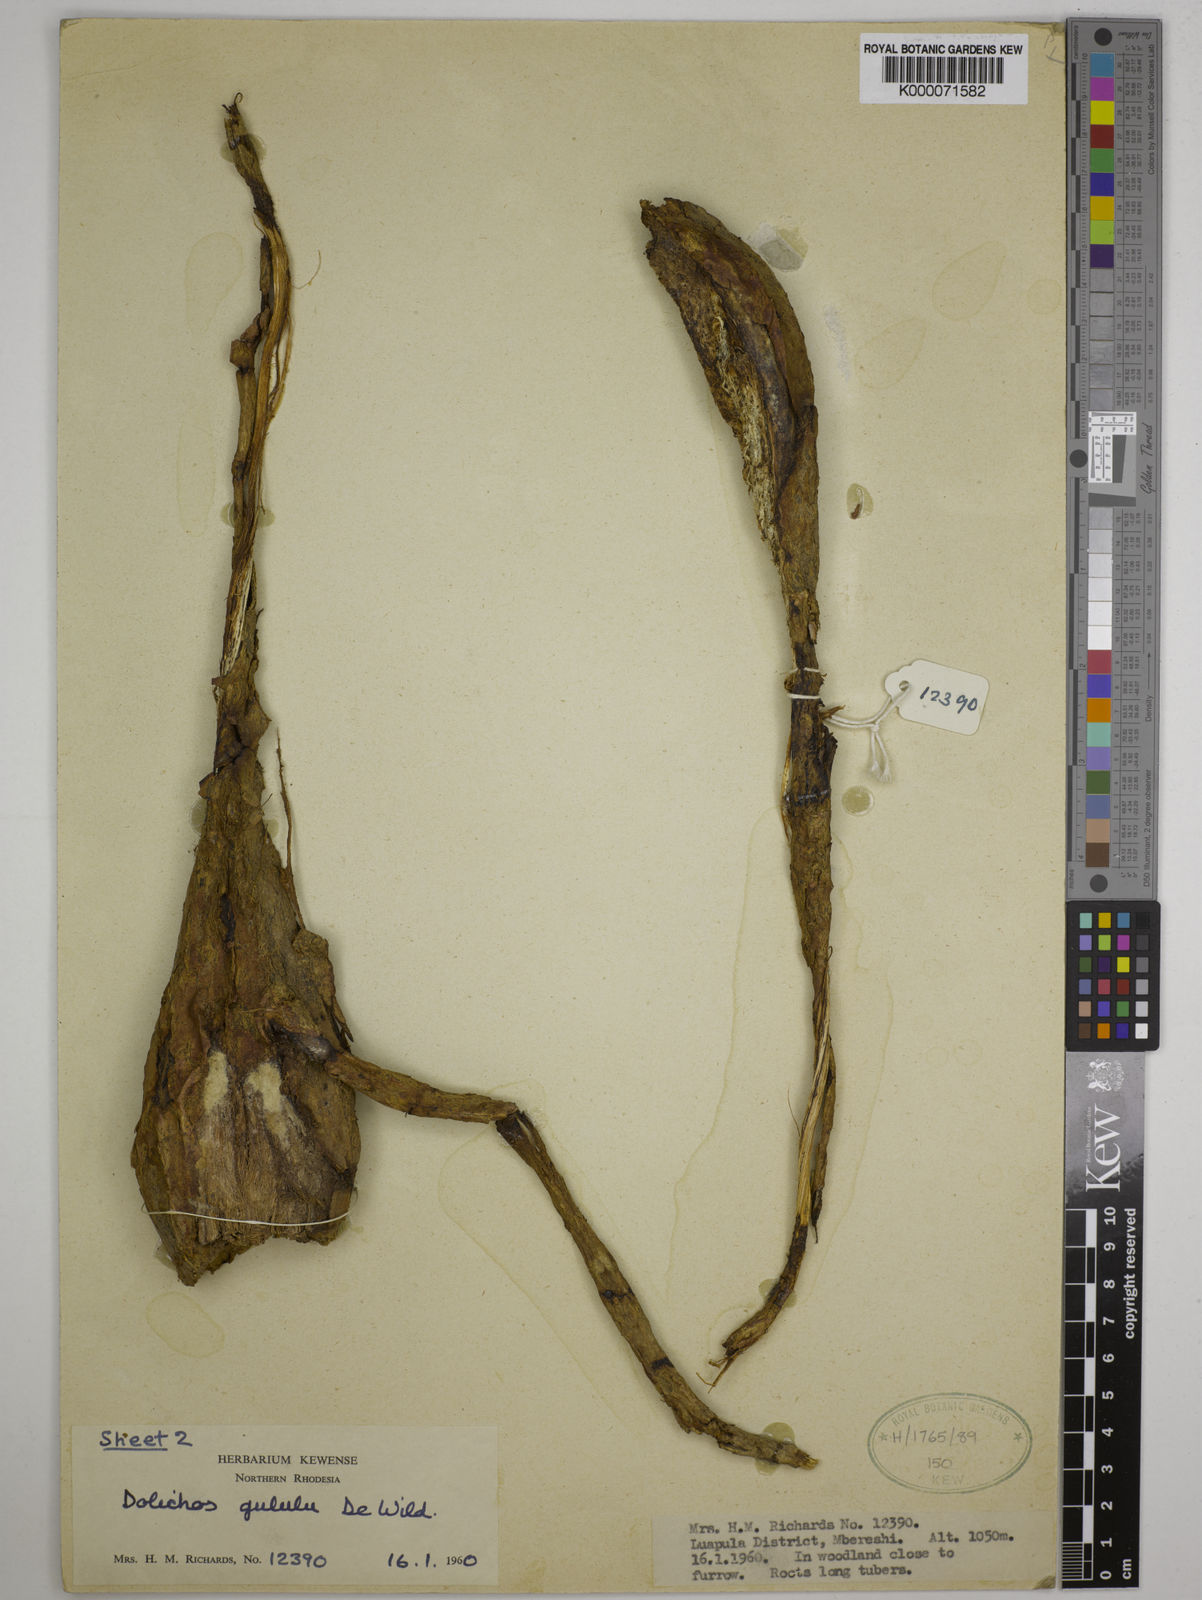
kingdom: Plantae
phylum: Tracheophyta
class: Magnoliopsida
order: Fabales
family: Fabaceae
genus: Dolichos
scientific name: Dolichos gululu
